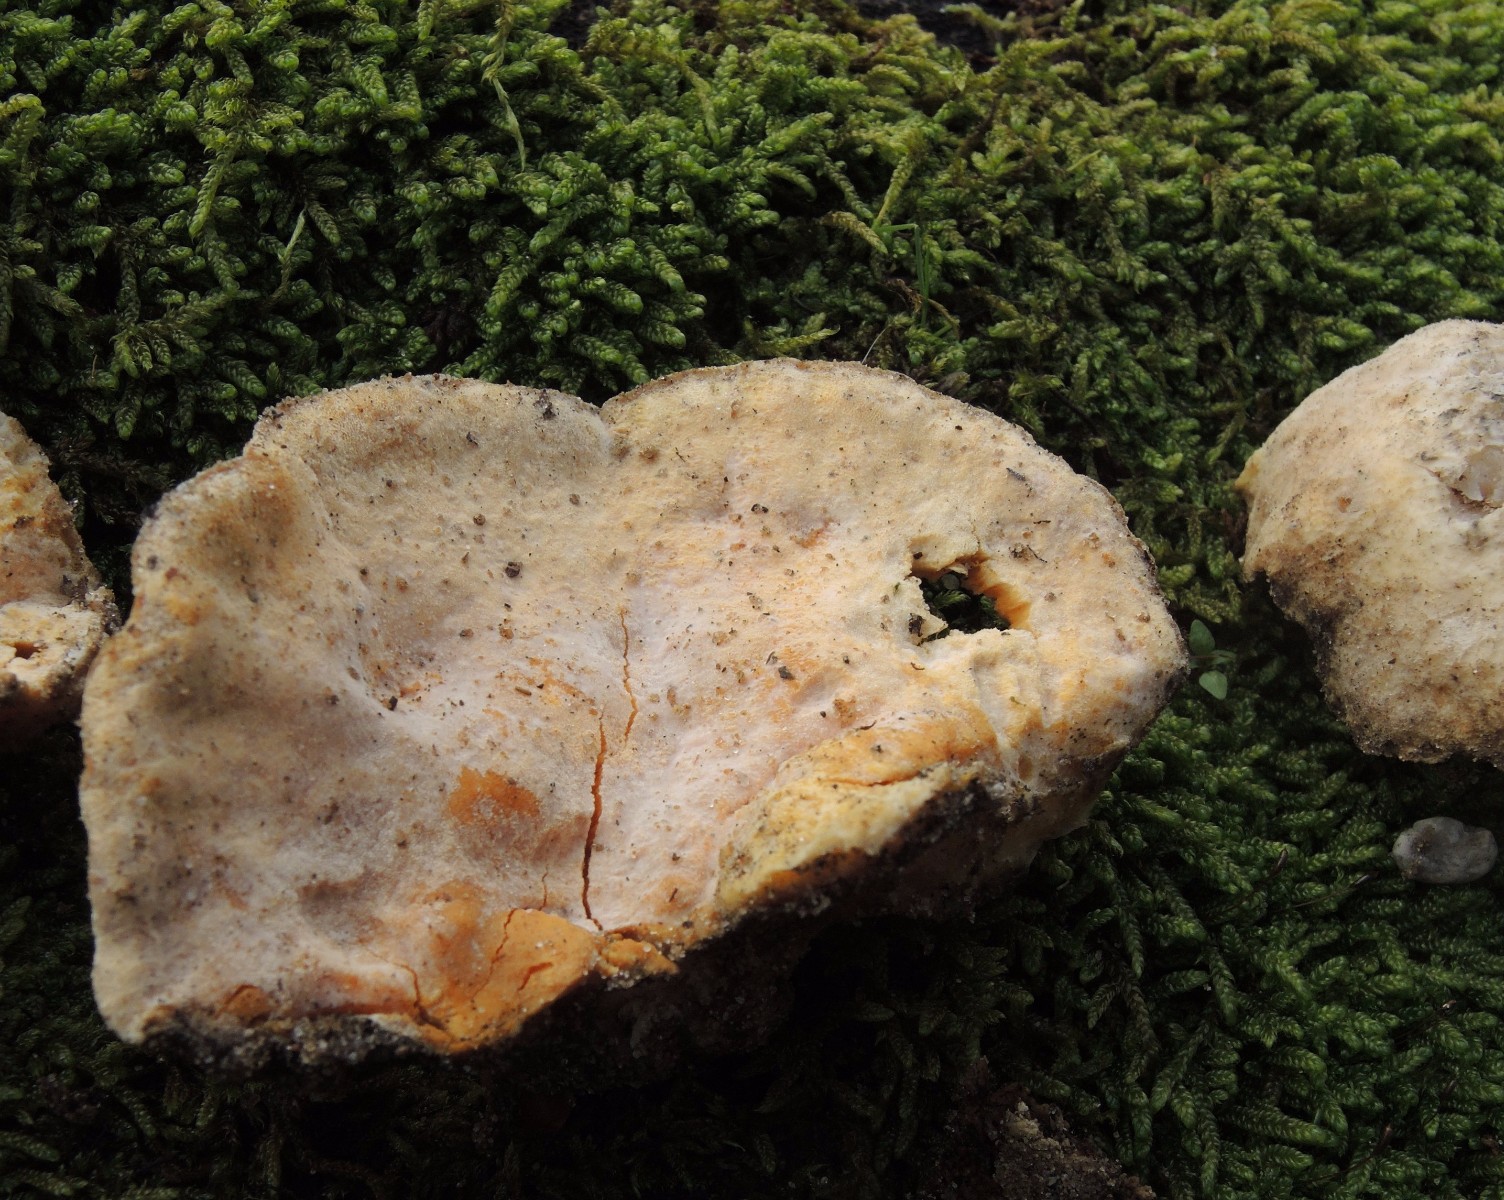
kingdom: Fungi
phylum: Ascomycota
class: Sordariomycetes
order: Hypocreales
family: Hypocreaceae
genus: Hypomyces
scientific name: Hypomyces aurantius
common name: almindelig snylteskorpe
